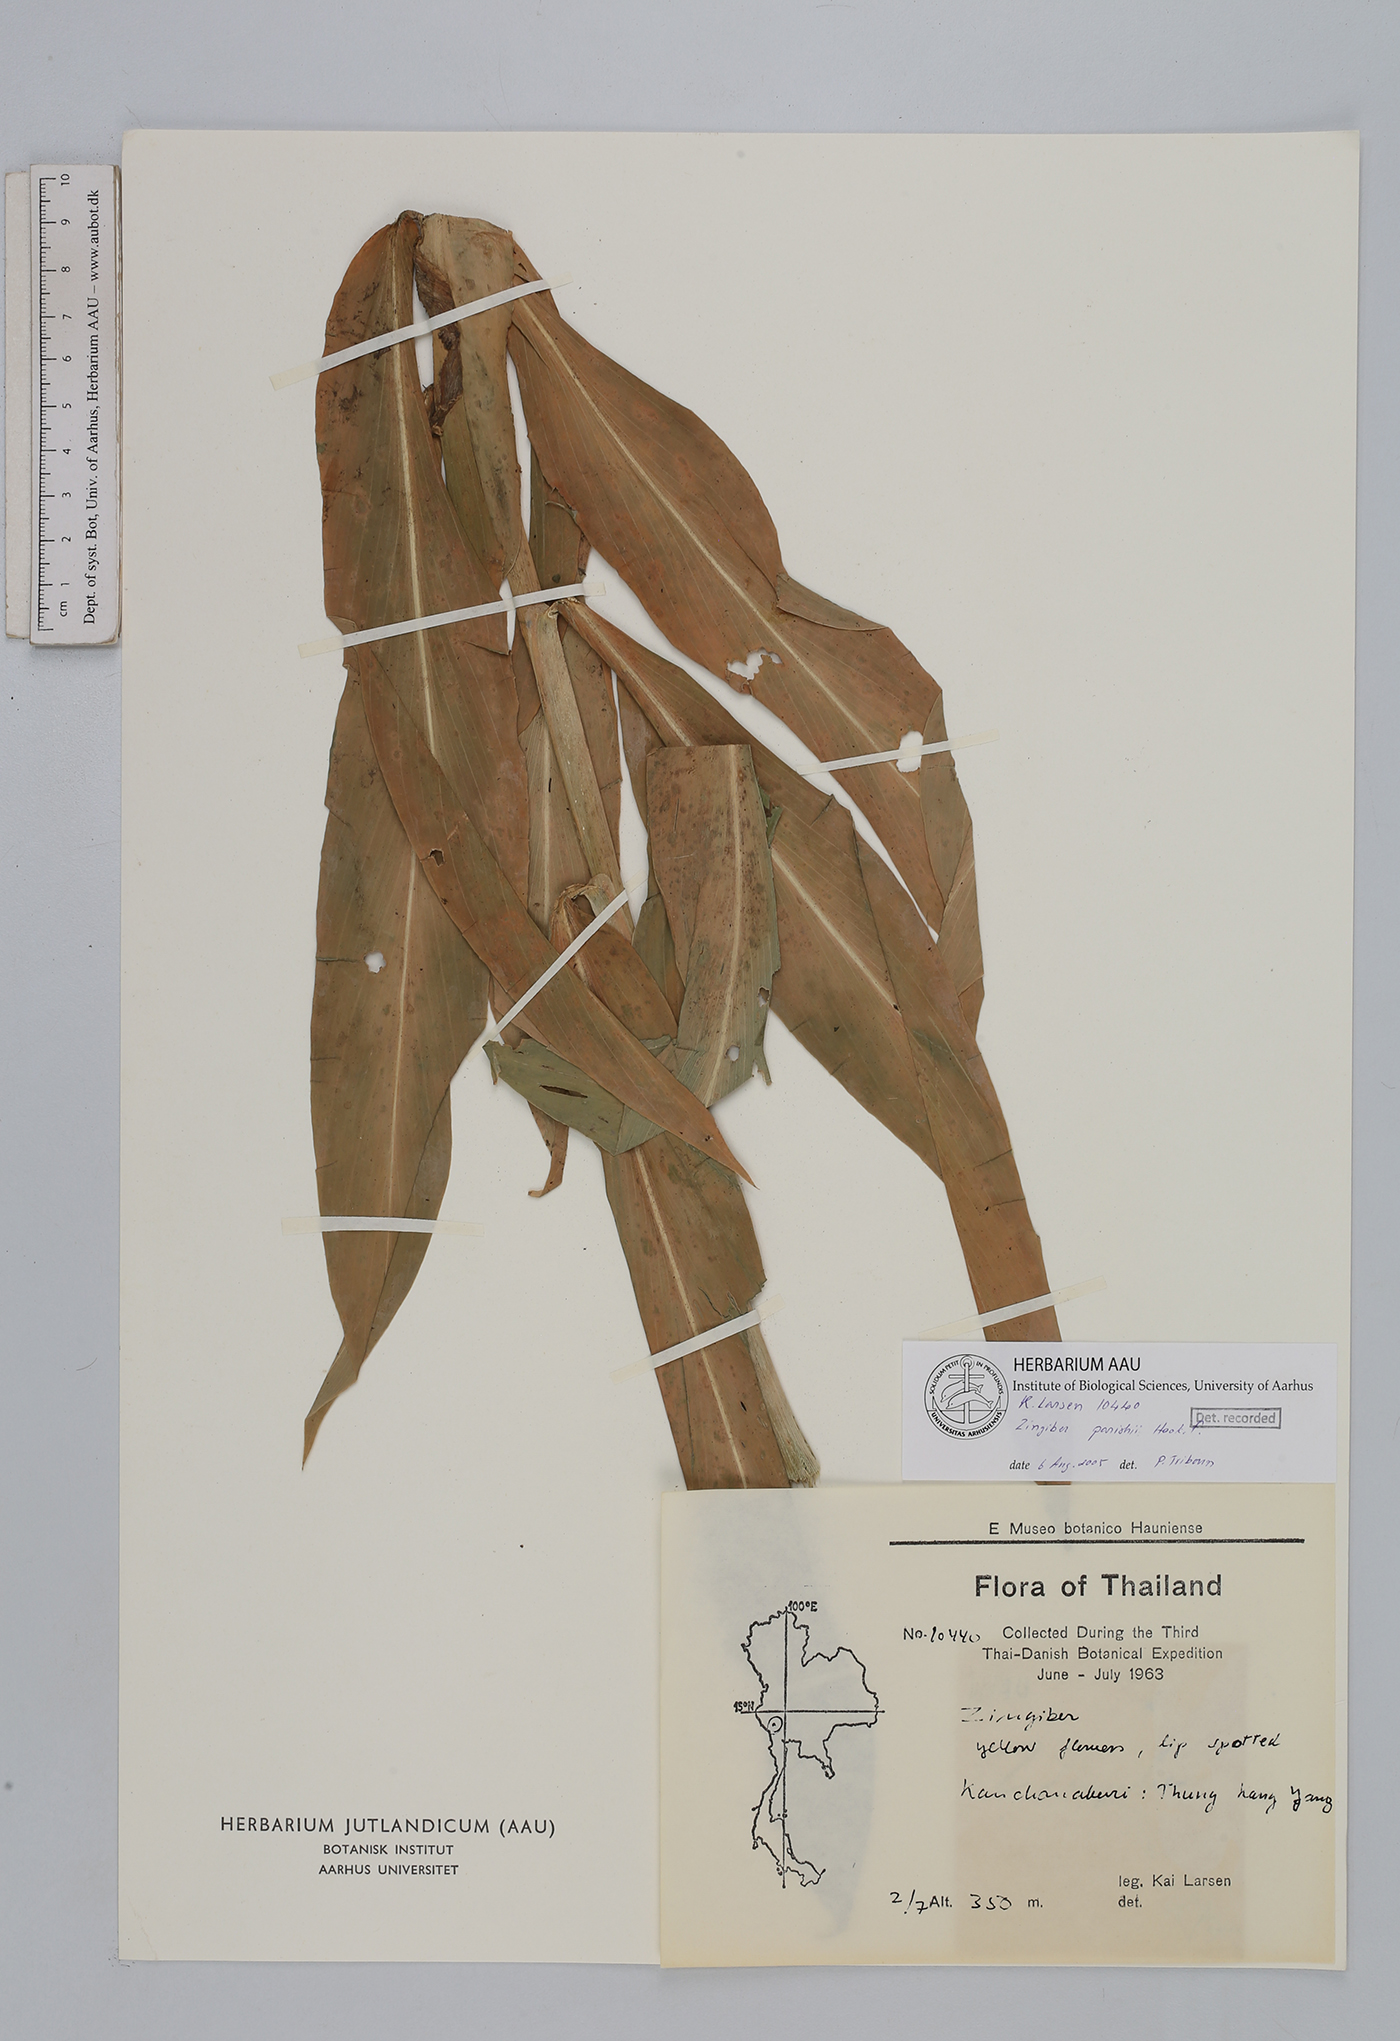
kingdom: Plantae
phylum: Tracheophyta
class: Liliopsida
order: Zingiberales
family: Zingiberaceae
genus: Zingiber
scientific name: Zingiber parishii
